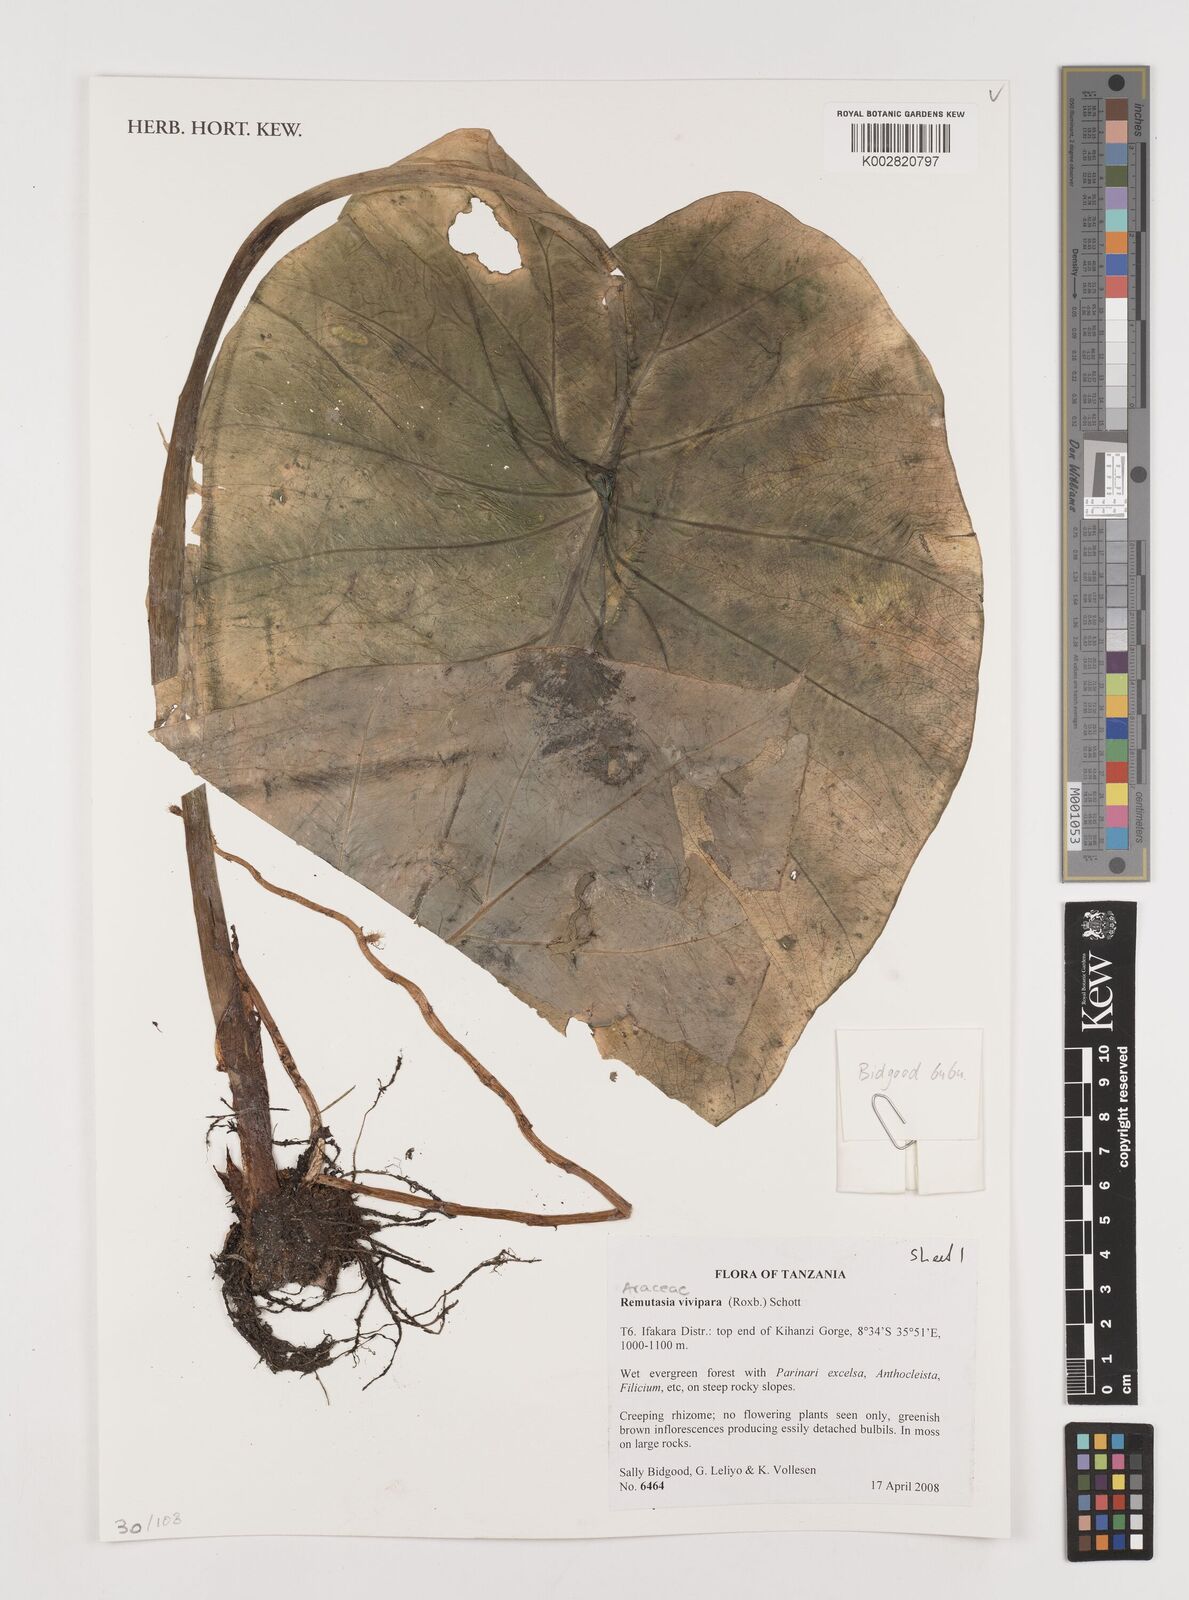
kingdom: Plantae
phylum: Tracheophyta
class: Liliopsida
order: Alismatales
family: Araceae
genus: Remusatia
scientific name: Remusatia vivipara
